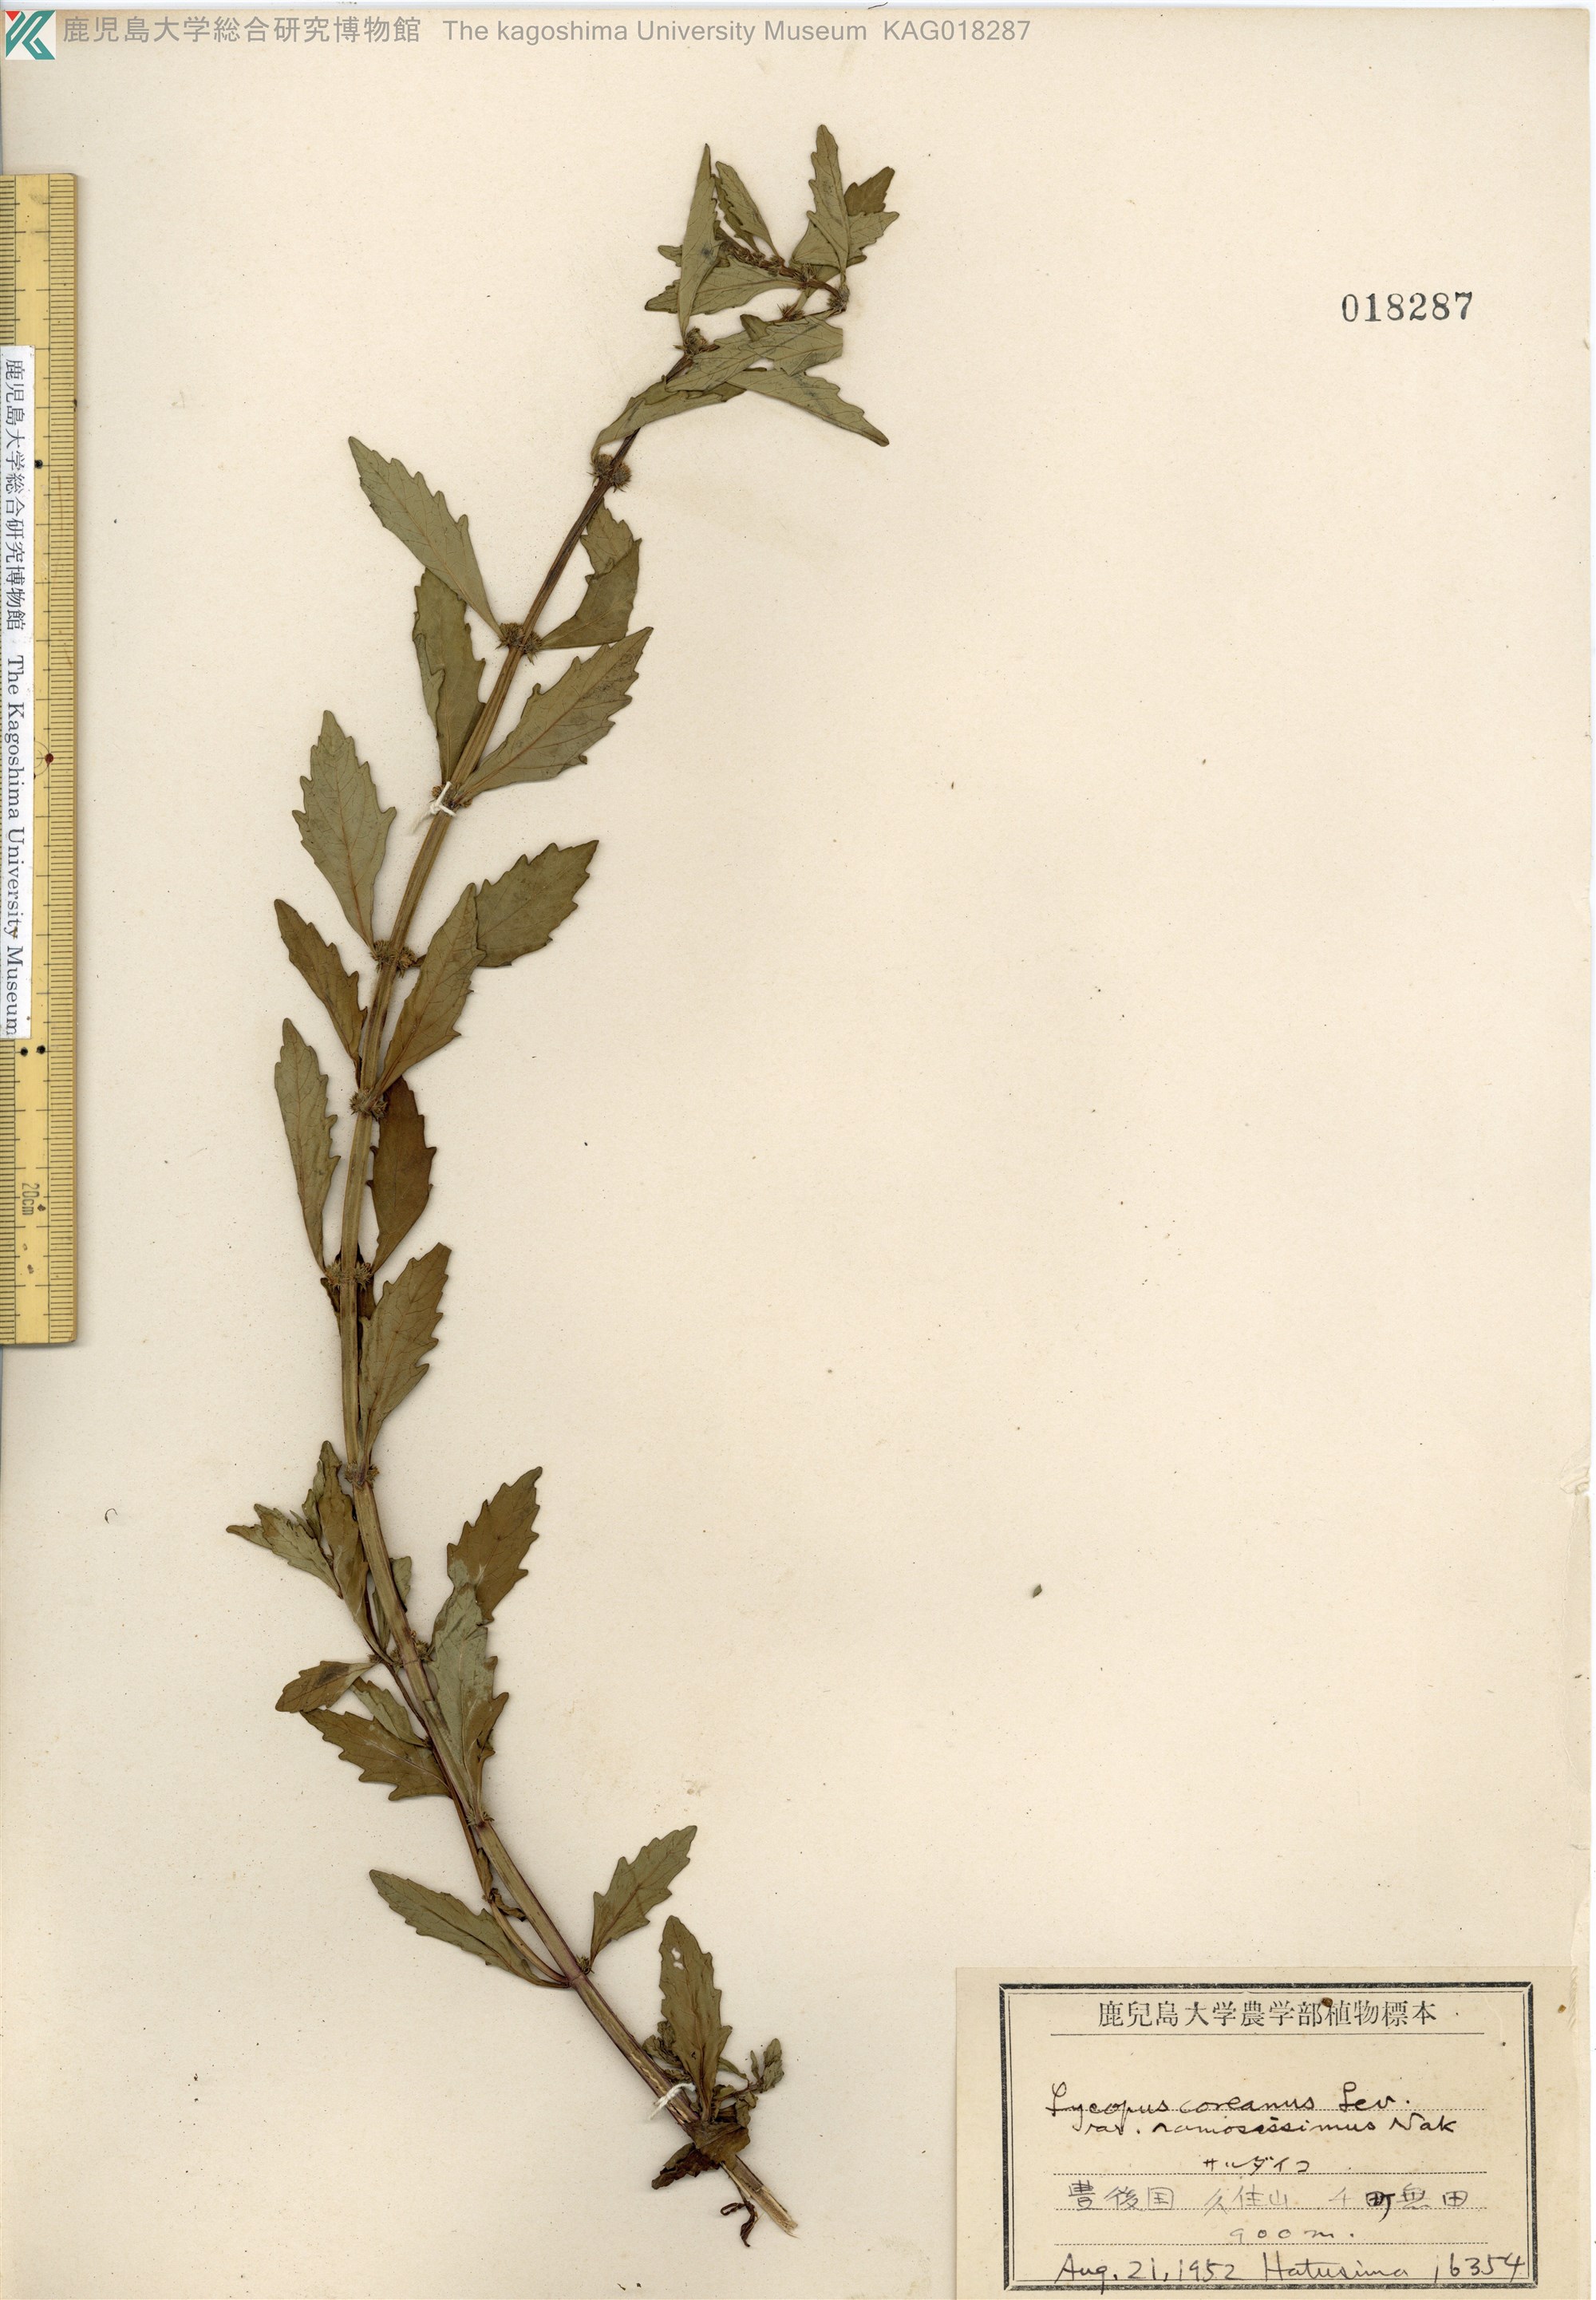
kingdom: Plantae
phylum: Tracheophyta
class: Magnoliopsida
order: Lamiales
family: Lamiaceae
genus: Lycopus
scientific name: Lycopus cavaleriei
